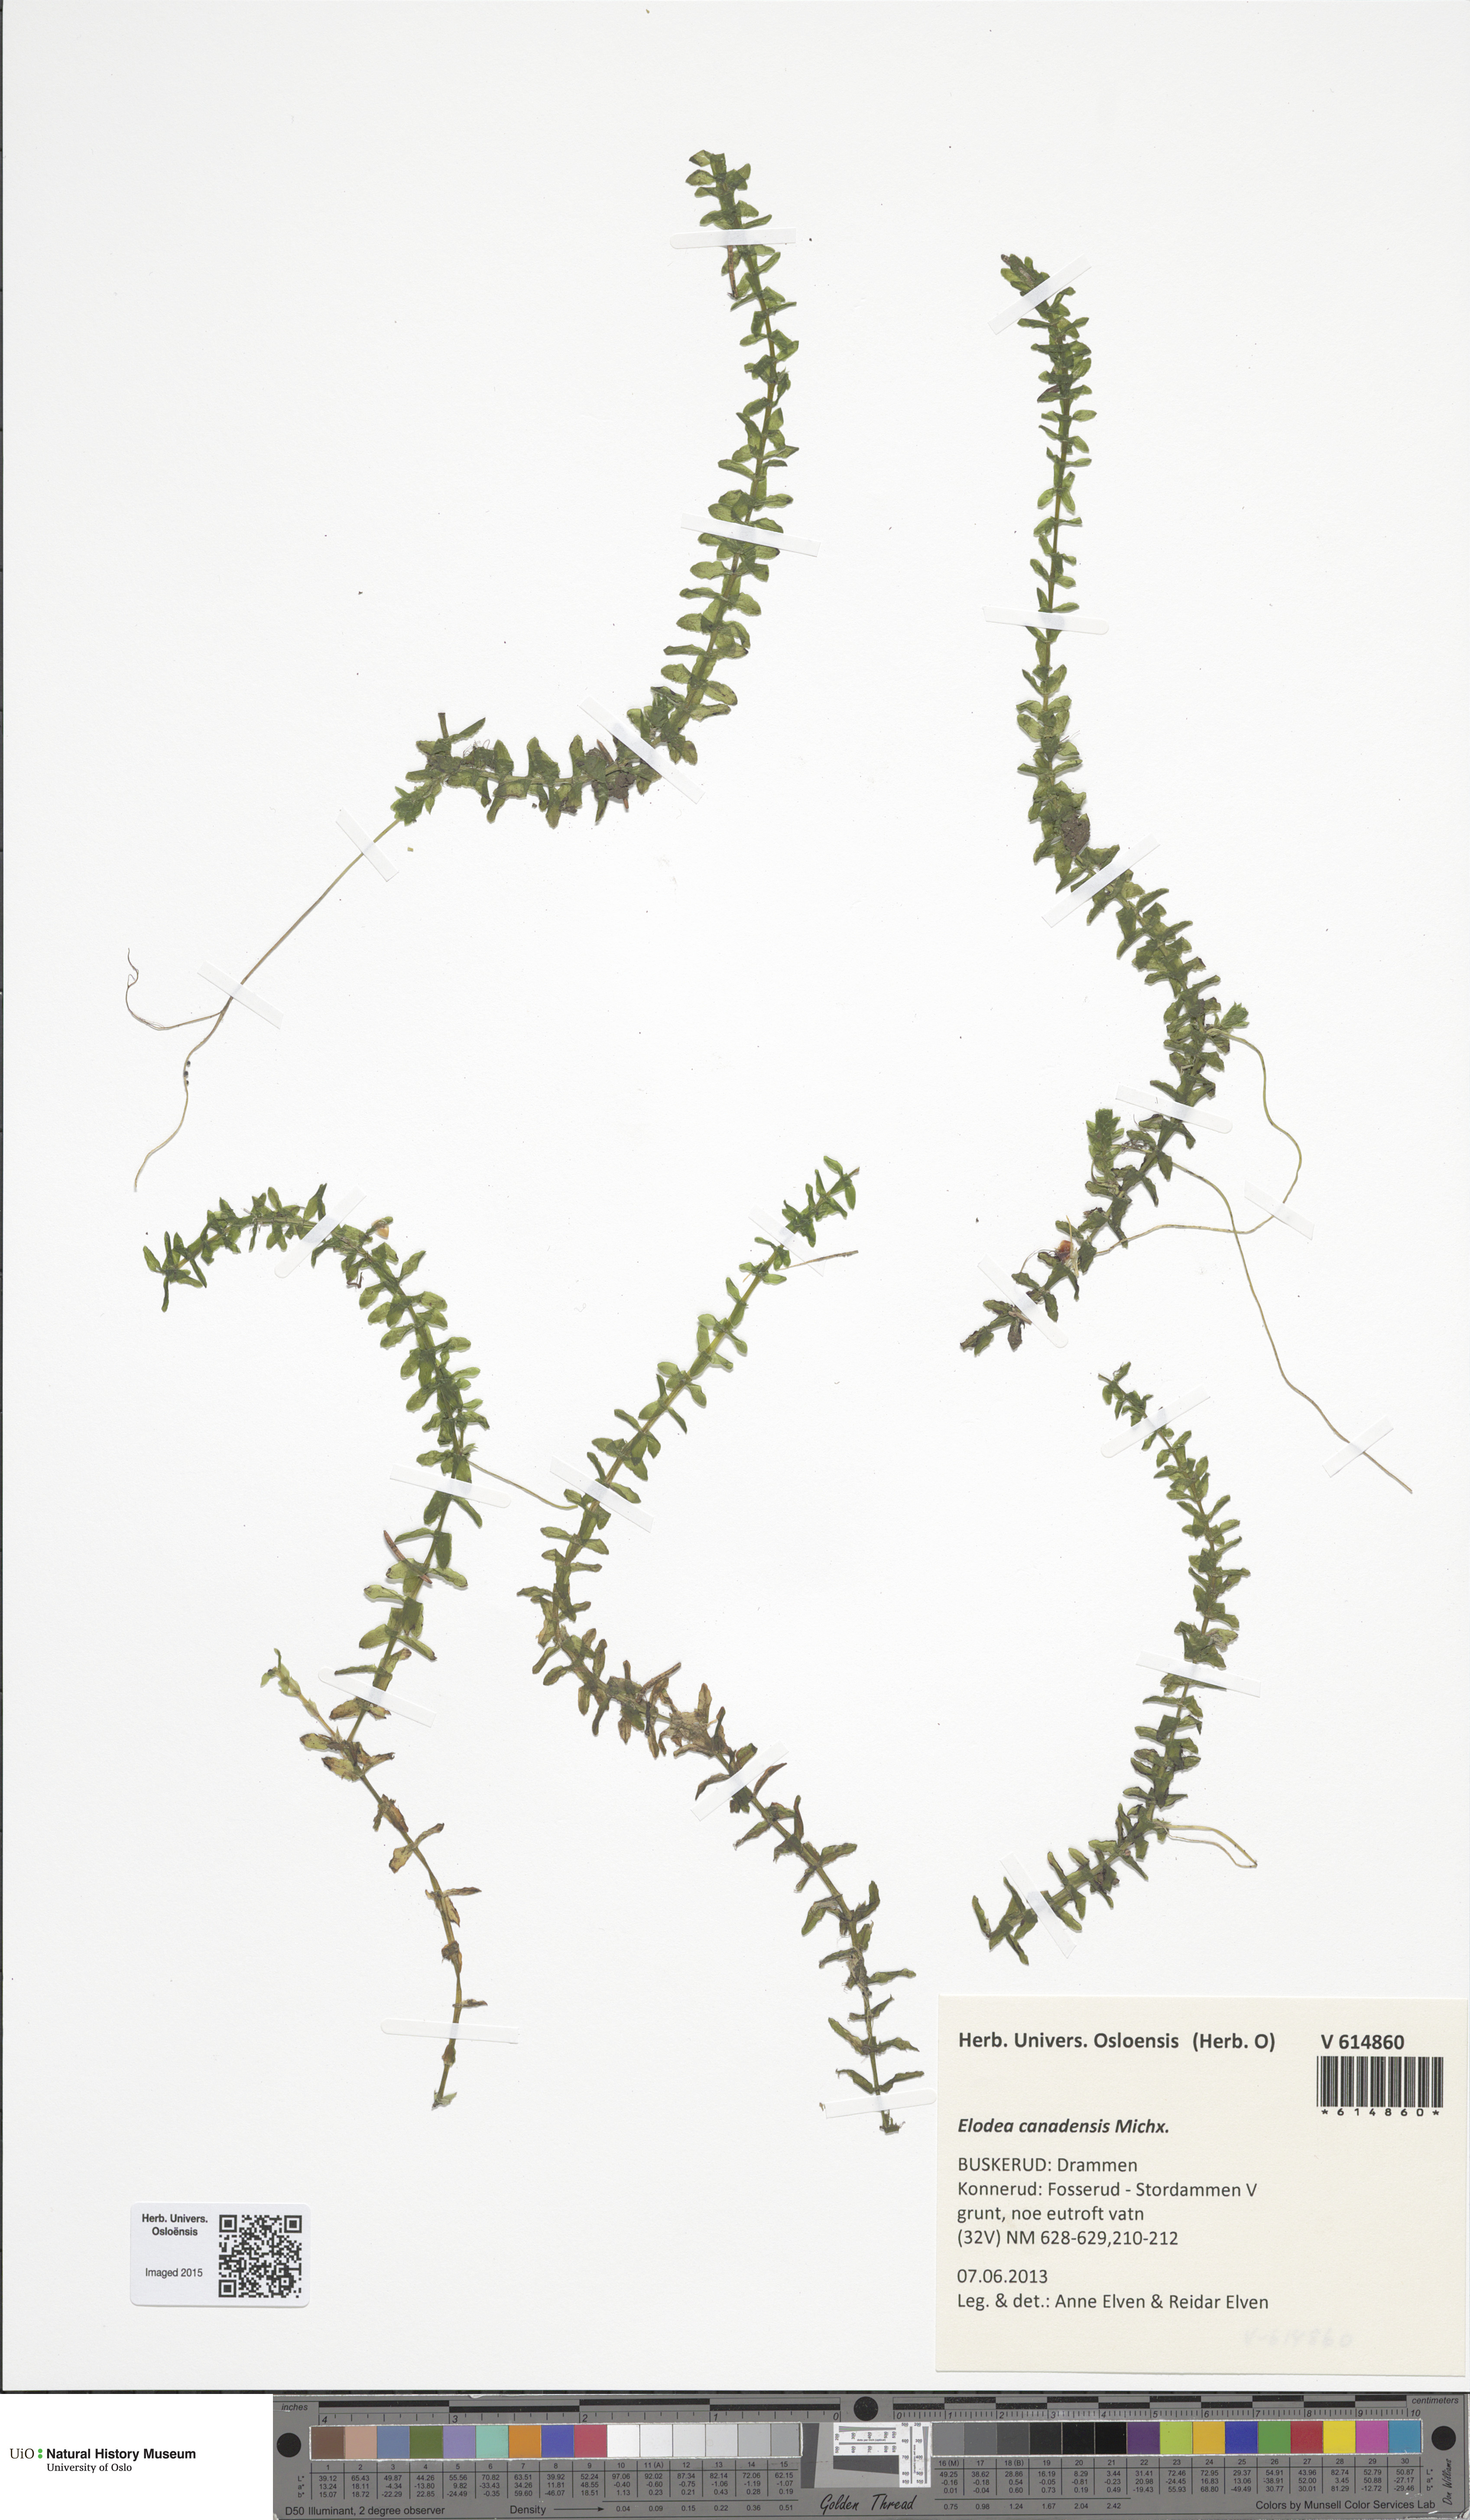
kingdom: Plantae
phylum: Tracheophyta
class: Liliopsida
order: Alismatales
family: Hydrocharitaceae
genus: Elodea
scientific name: Elodea canadensis
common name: Canadian waterweed
